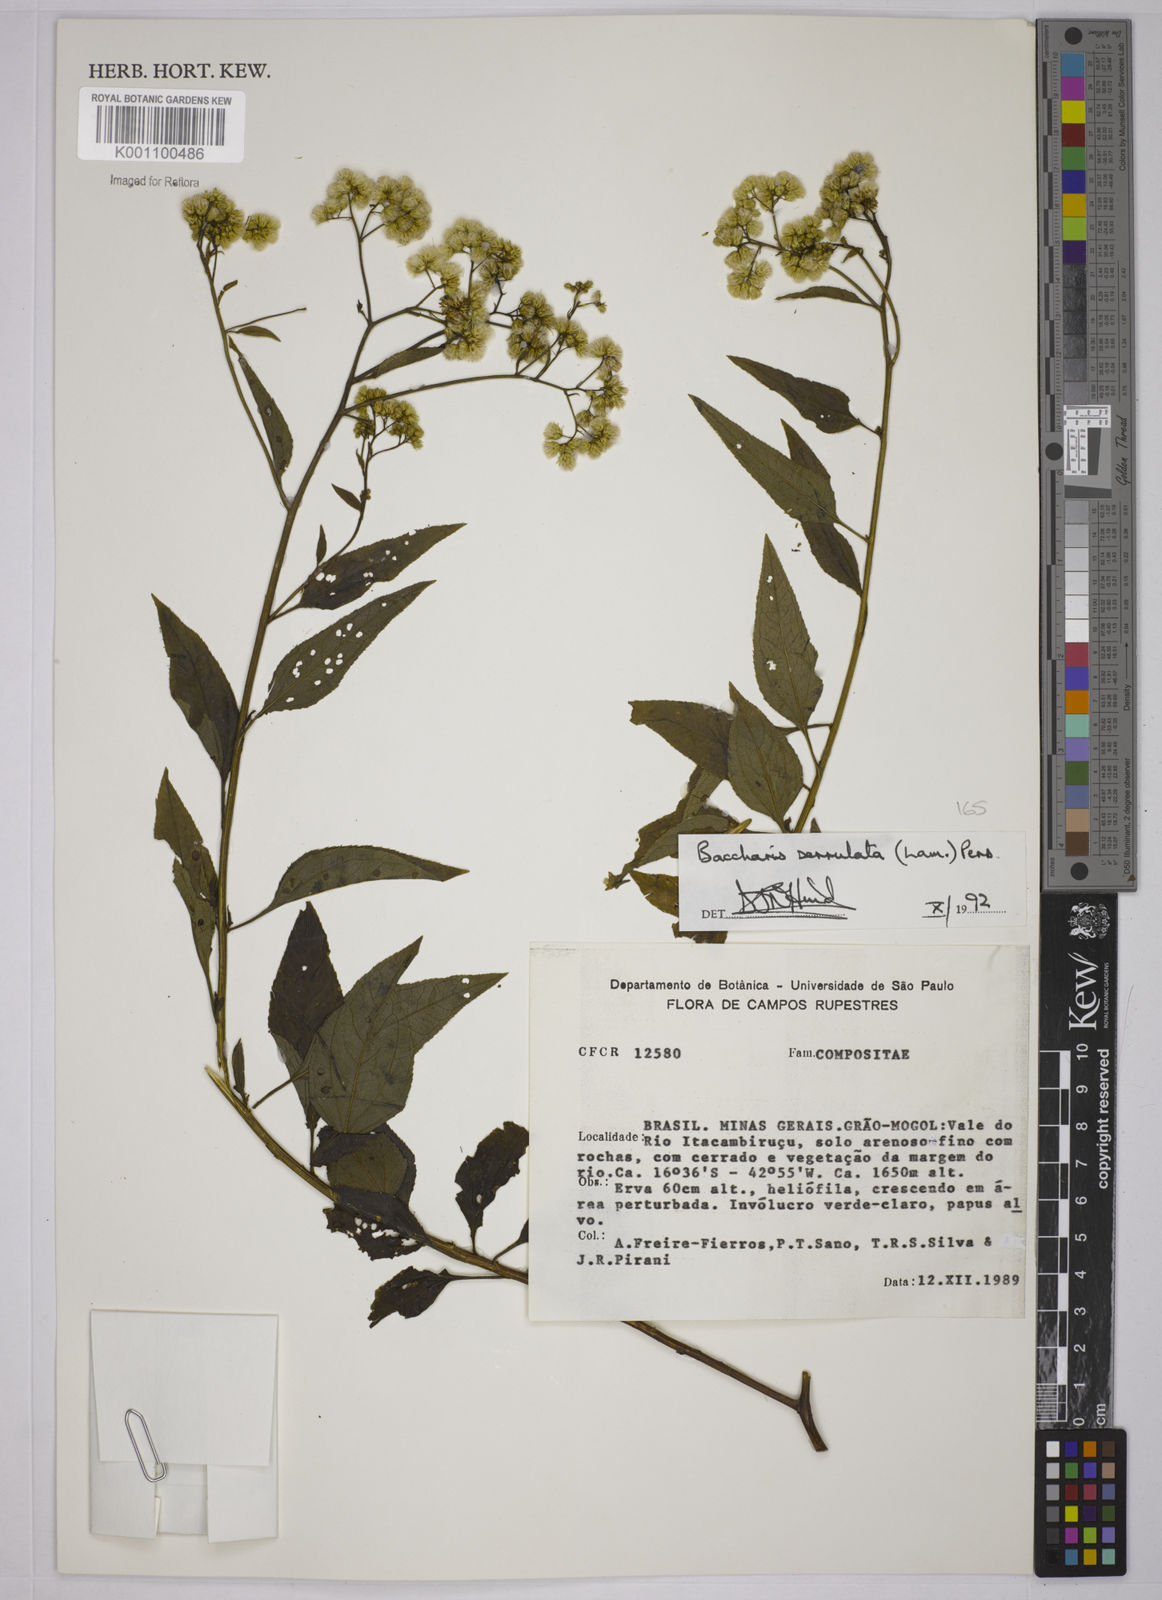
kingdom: Plantae
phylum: Tracheophyta
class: Magnoliopsida
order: Asterales
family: Asteraceae
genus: Baccharis
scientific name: Baccharis serrulata
